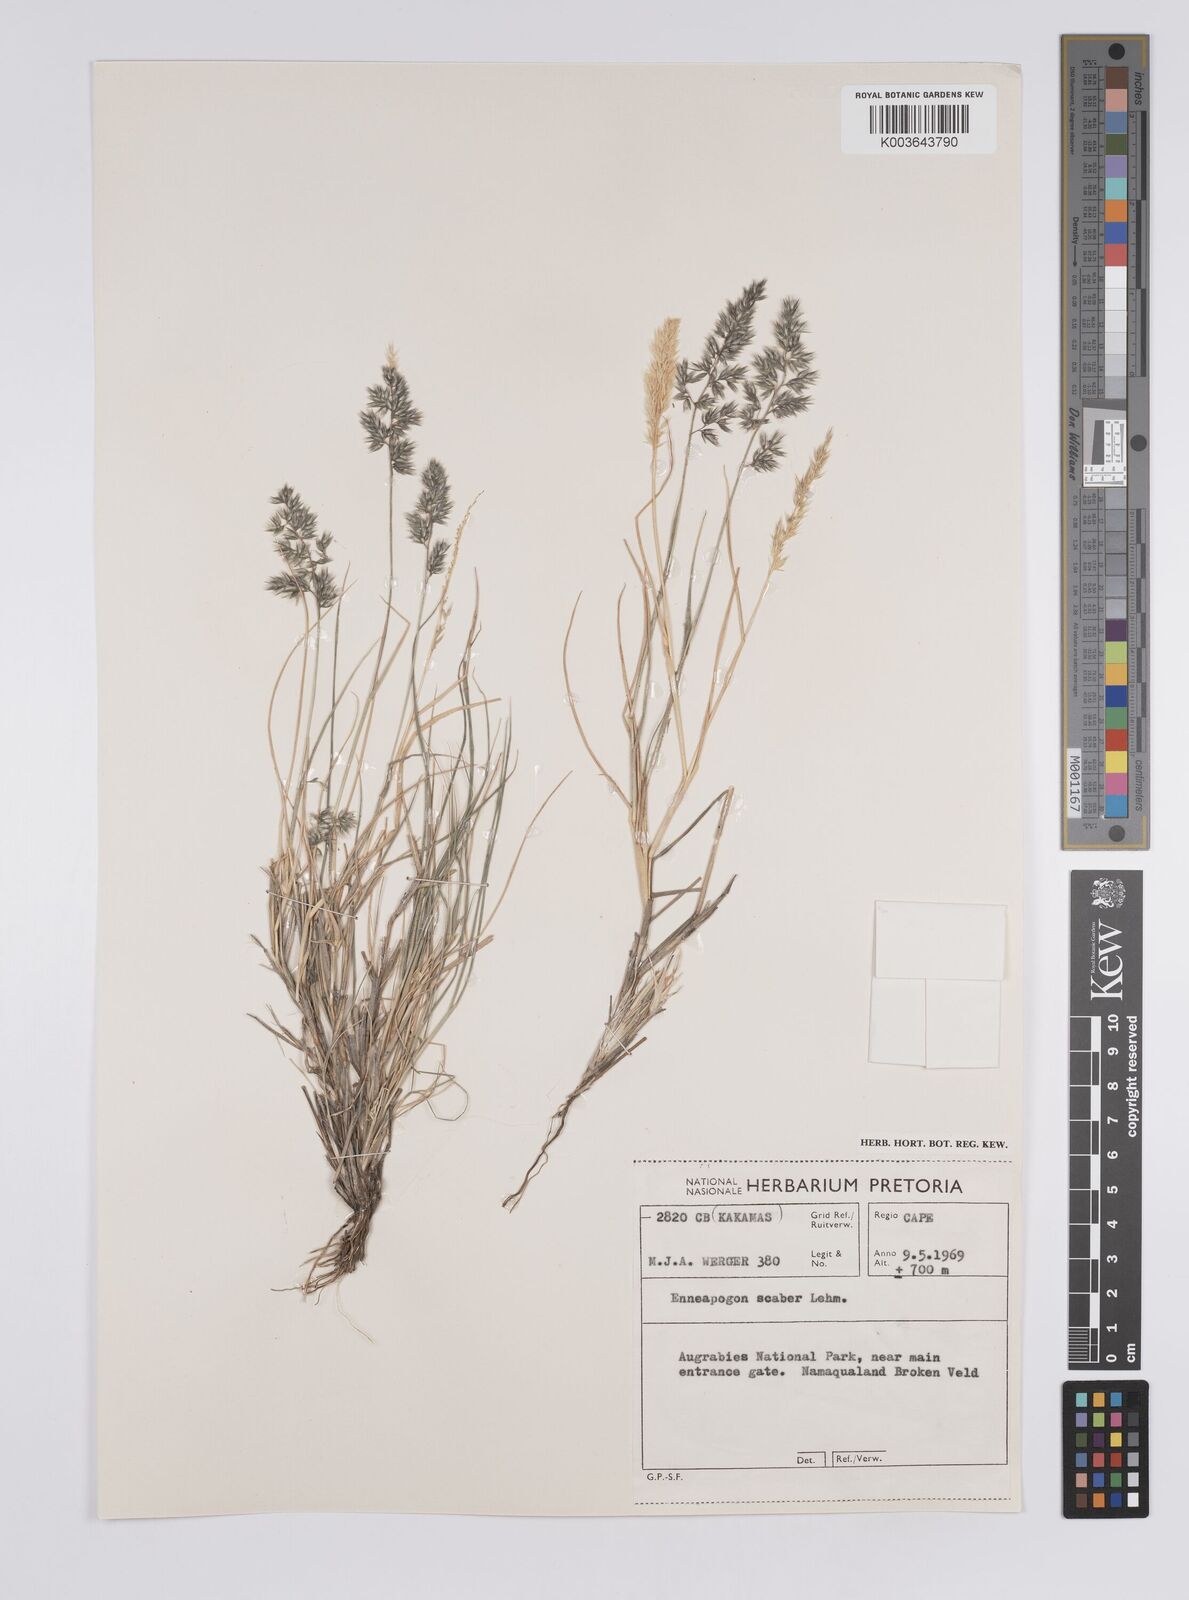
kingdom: Plantae
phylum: Tracheophyta
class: Liliopsida
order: Poales
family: Poaceae
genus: Enneapogon
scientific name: Enneapogon scaber
